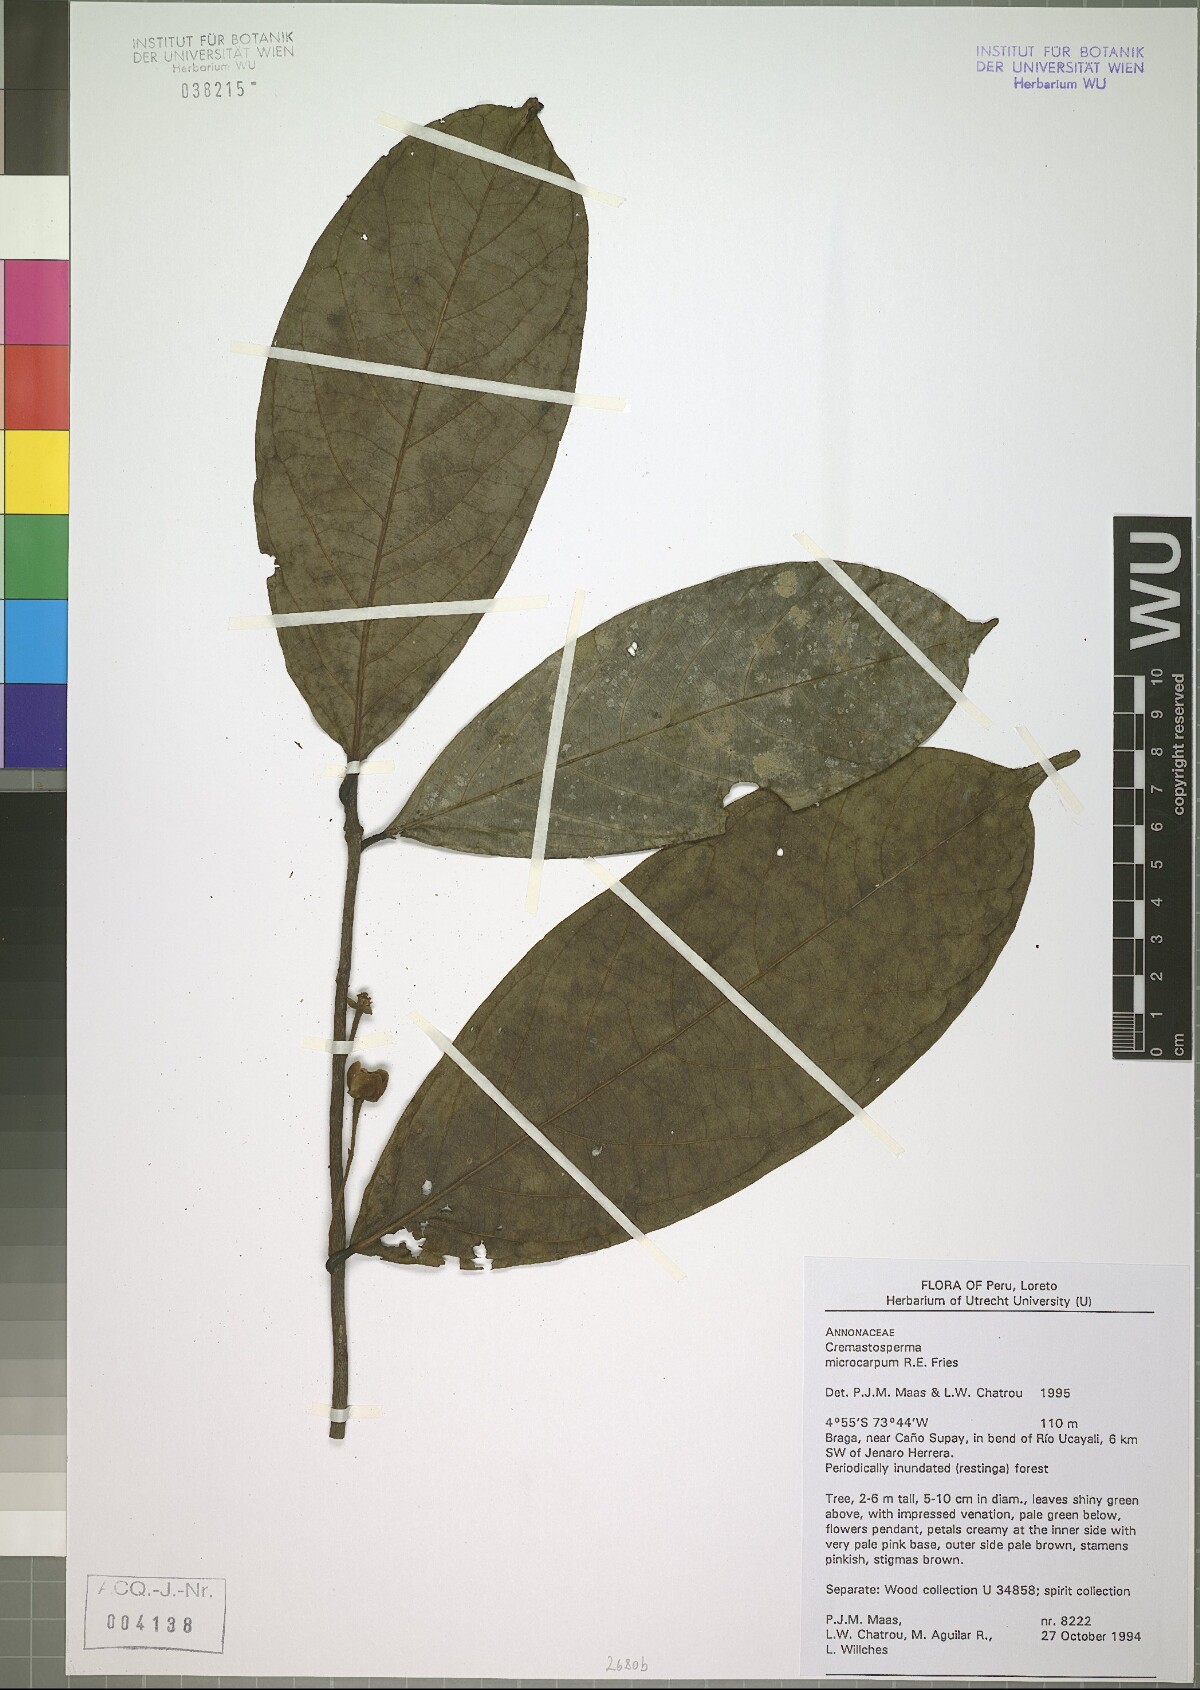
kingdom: Plantae
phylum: Tracheophyta
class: Magnoliopsida
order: Magnoliales
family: Annonaceae
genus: Cremastosperma
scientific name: Cremastosperma microcarpum
